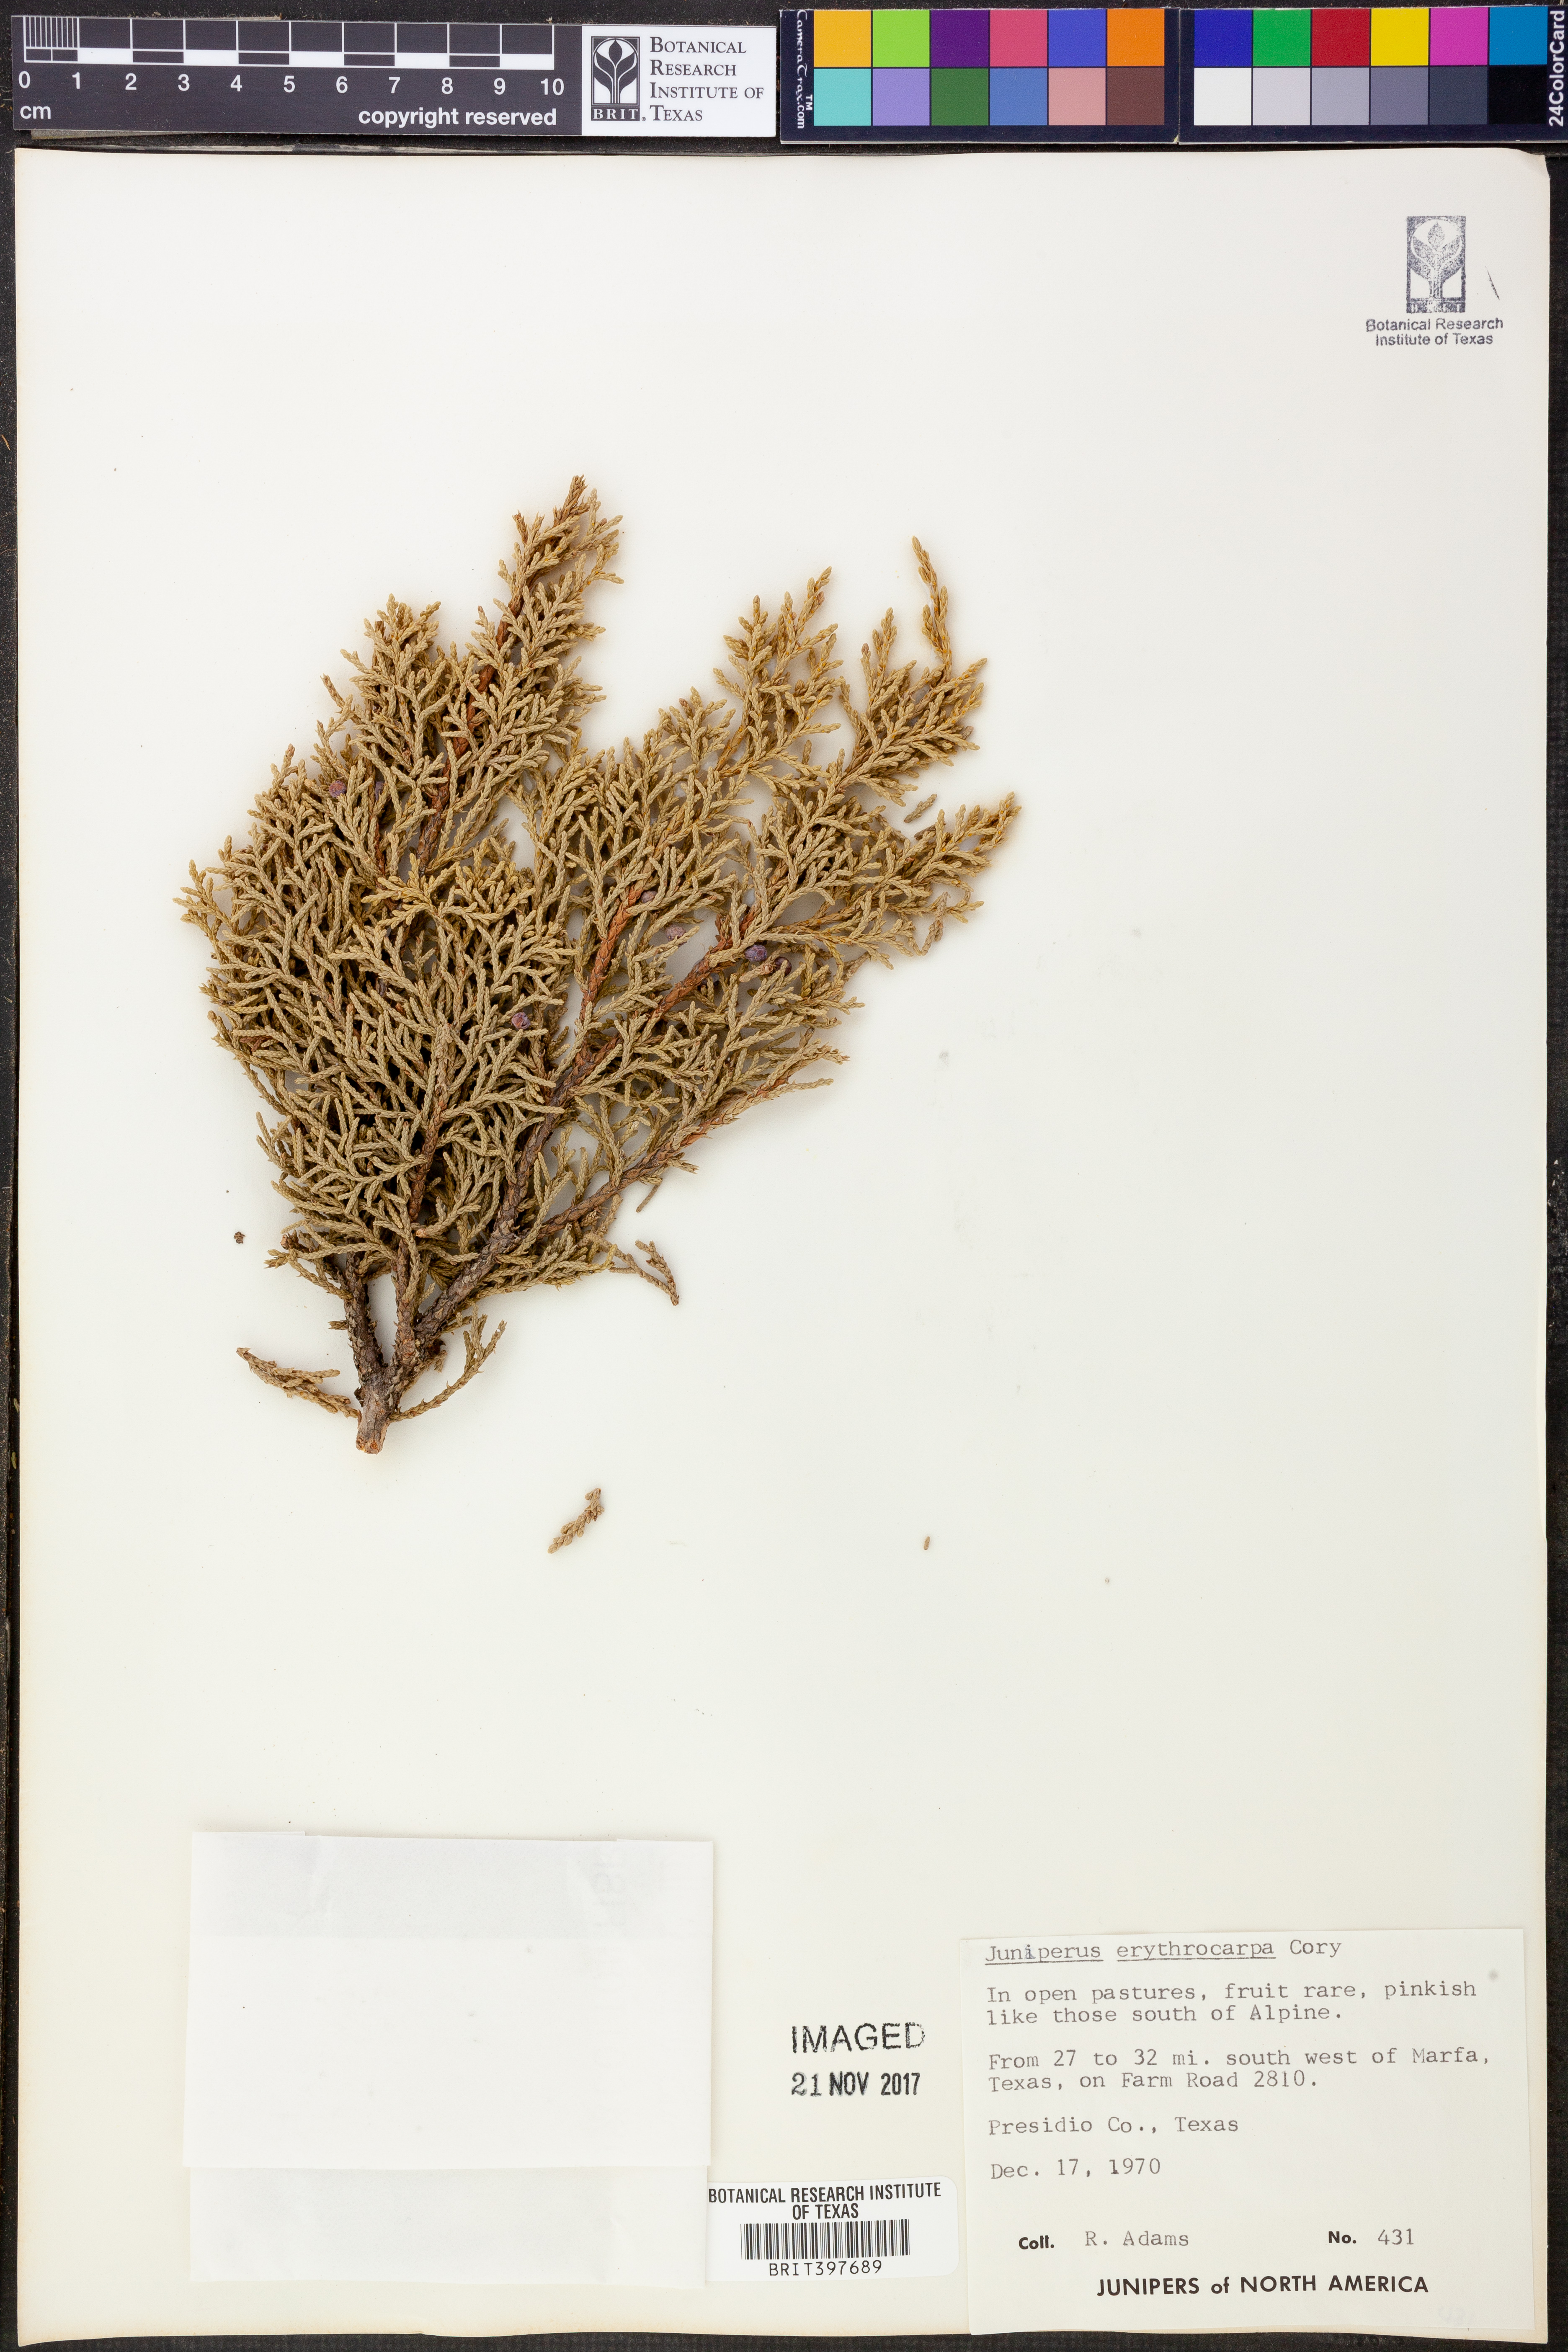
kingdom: Plantae
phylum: Tracheophyta
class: Pinopsida
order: Pinales
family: Cupressaceae
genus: Juniperus
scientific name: Juniperus pinchotii
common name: Pinchot juniper
